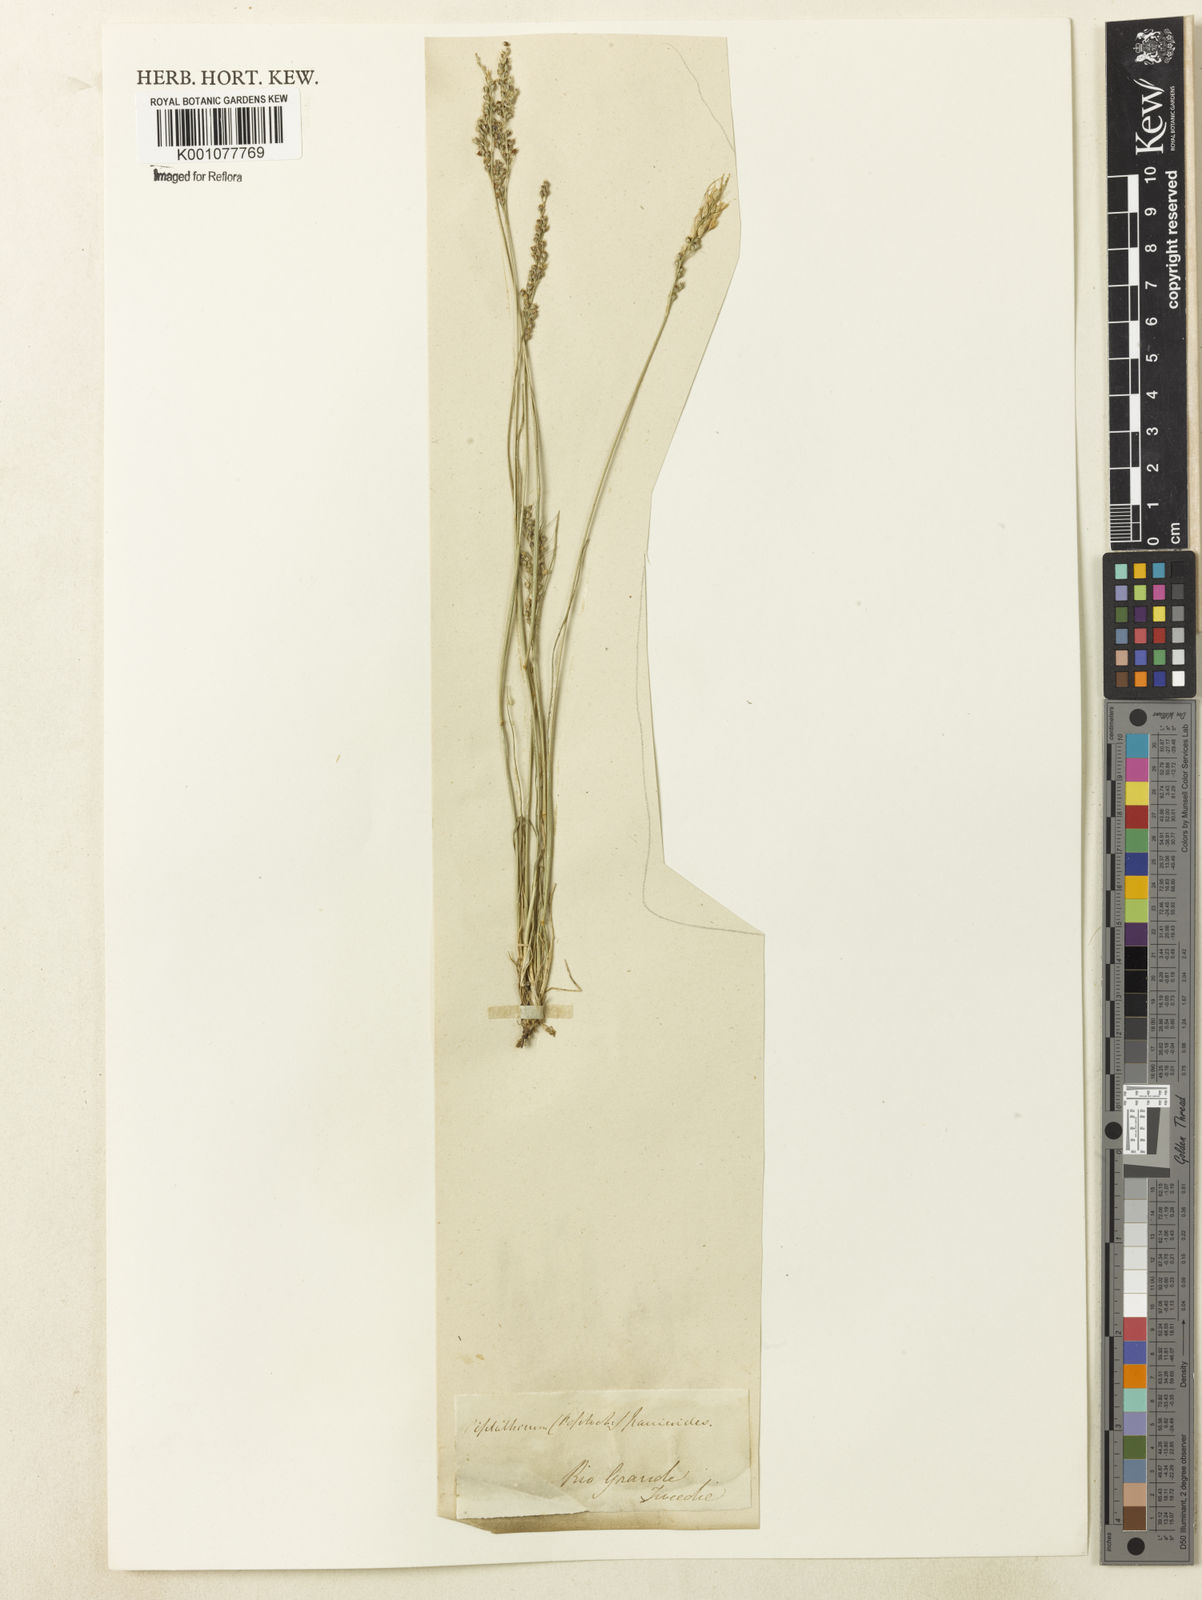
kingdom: Plantae
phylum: Tracheophyta
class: Liliopsida
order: Poales
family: Poaceae
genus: Piptochaetium
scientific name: Piptochaetium montevidense
